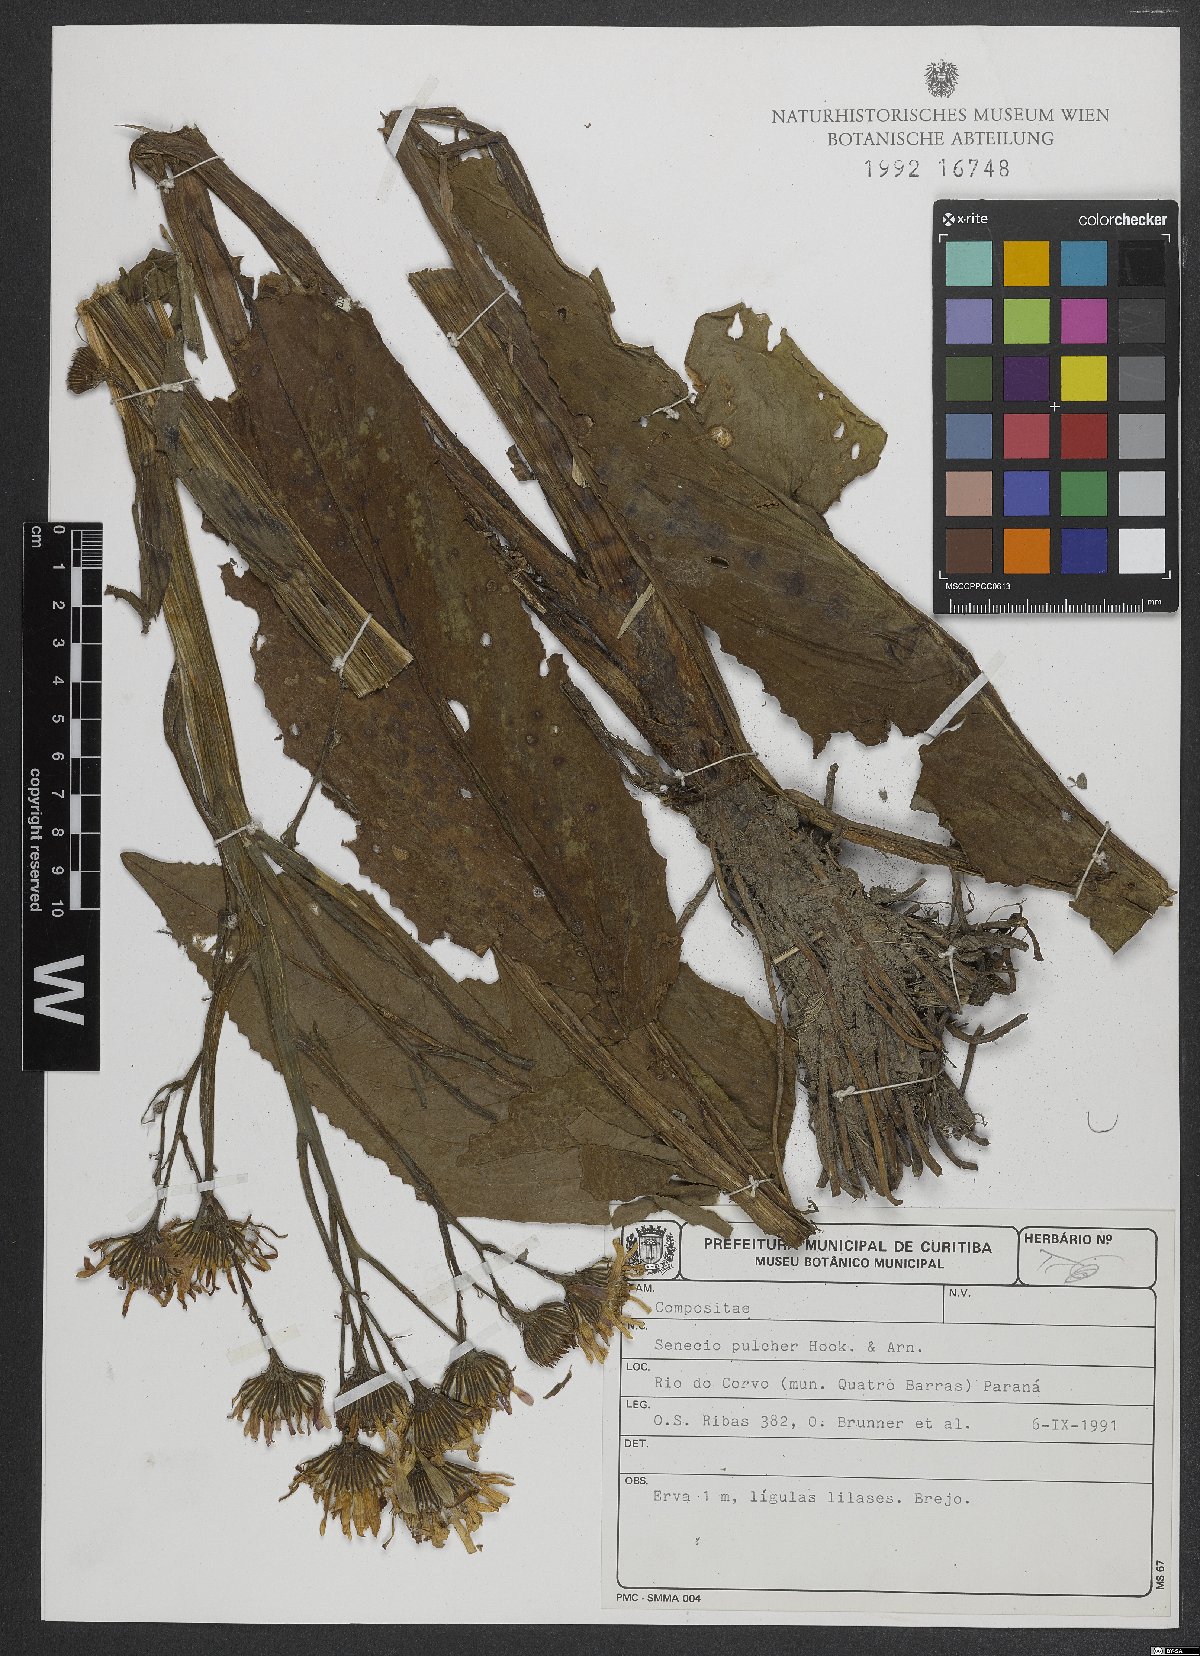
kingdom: Plantae
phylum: Tracheophyta
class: Magnoliopsida
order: Asterales
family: Asteraceae
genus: Senecio
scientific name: Senecio pulcher
